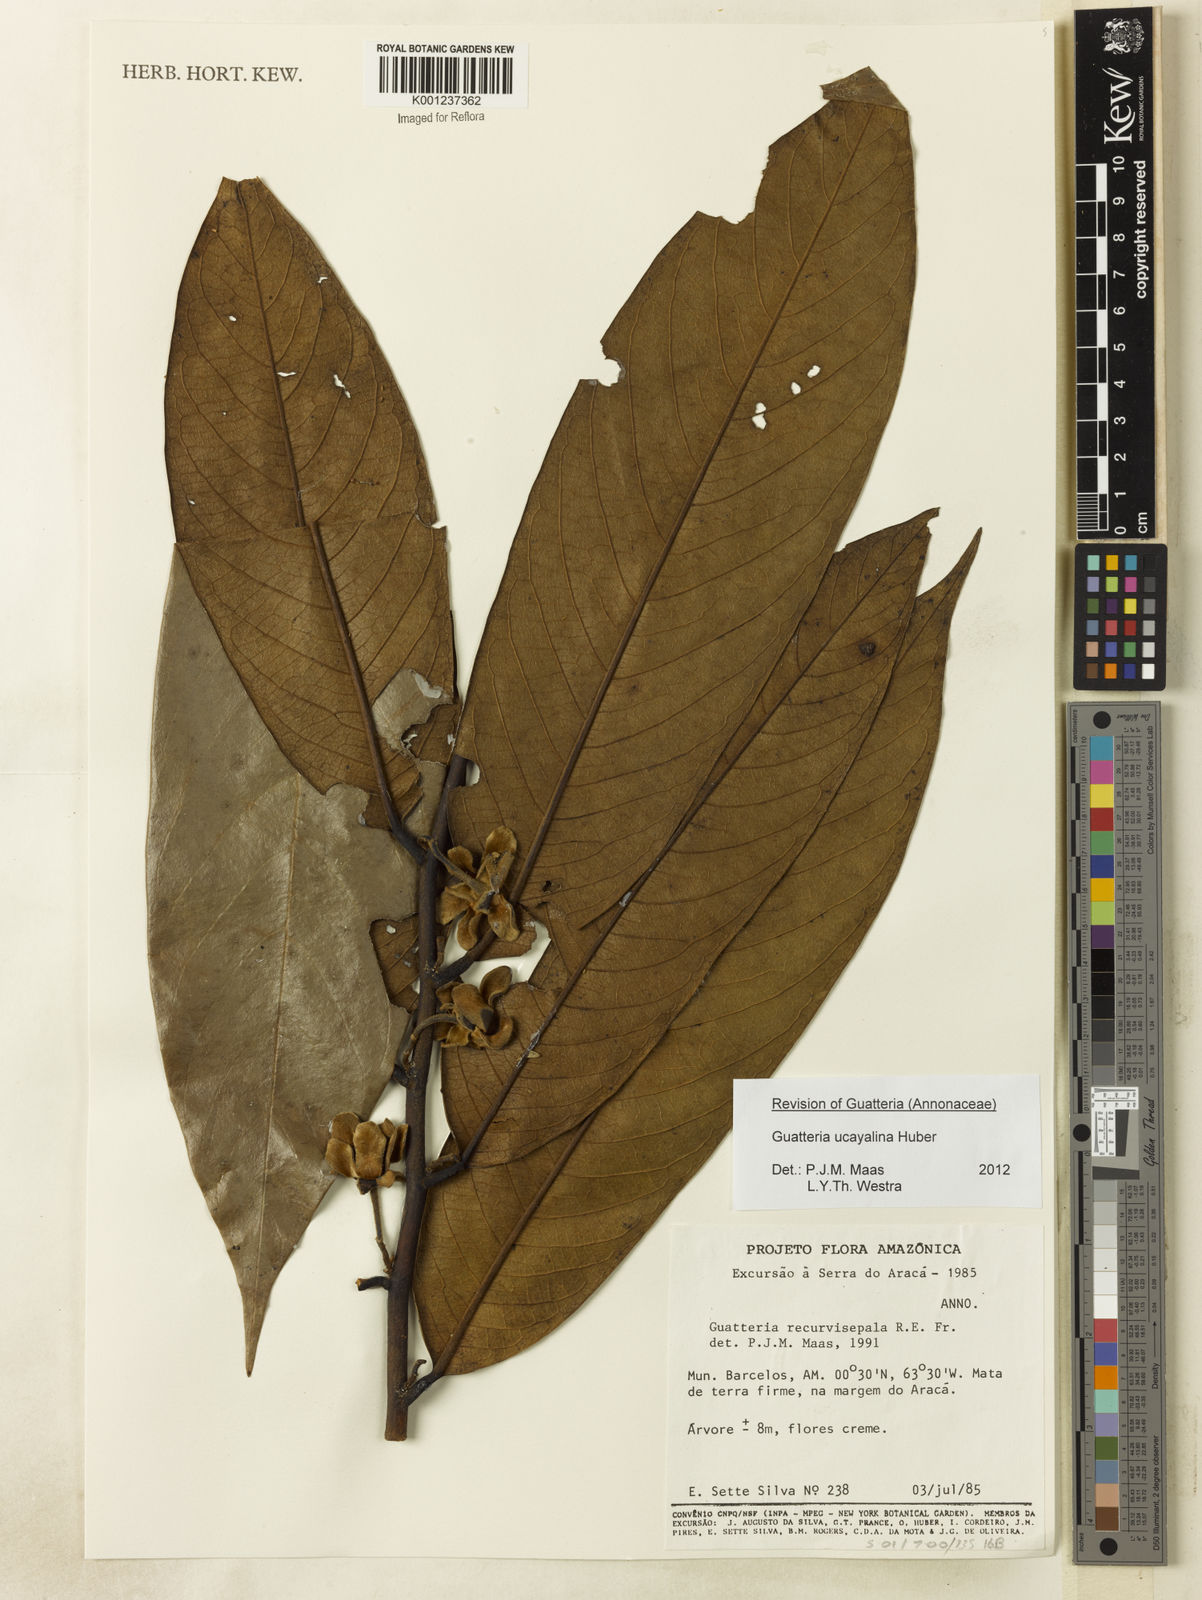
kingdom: Plantae
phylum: Tracheophyta
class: Magnoliopsida
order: Magnoliales
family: Annonaceae
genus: Guatteria
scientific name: Guatteria blepharophylla
